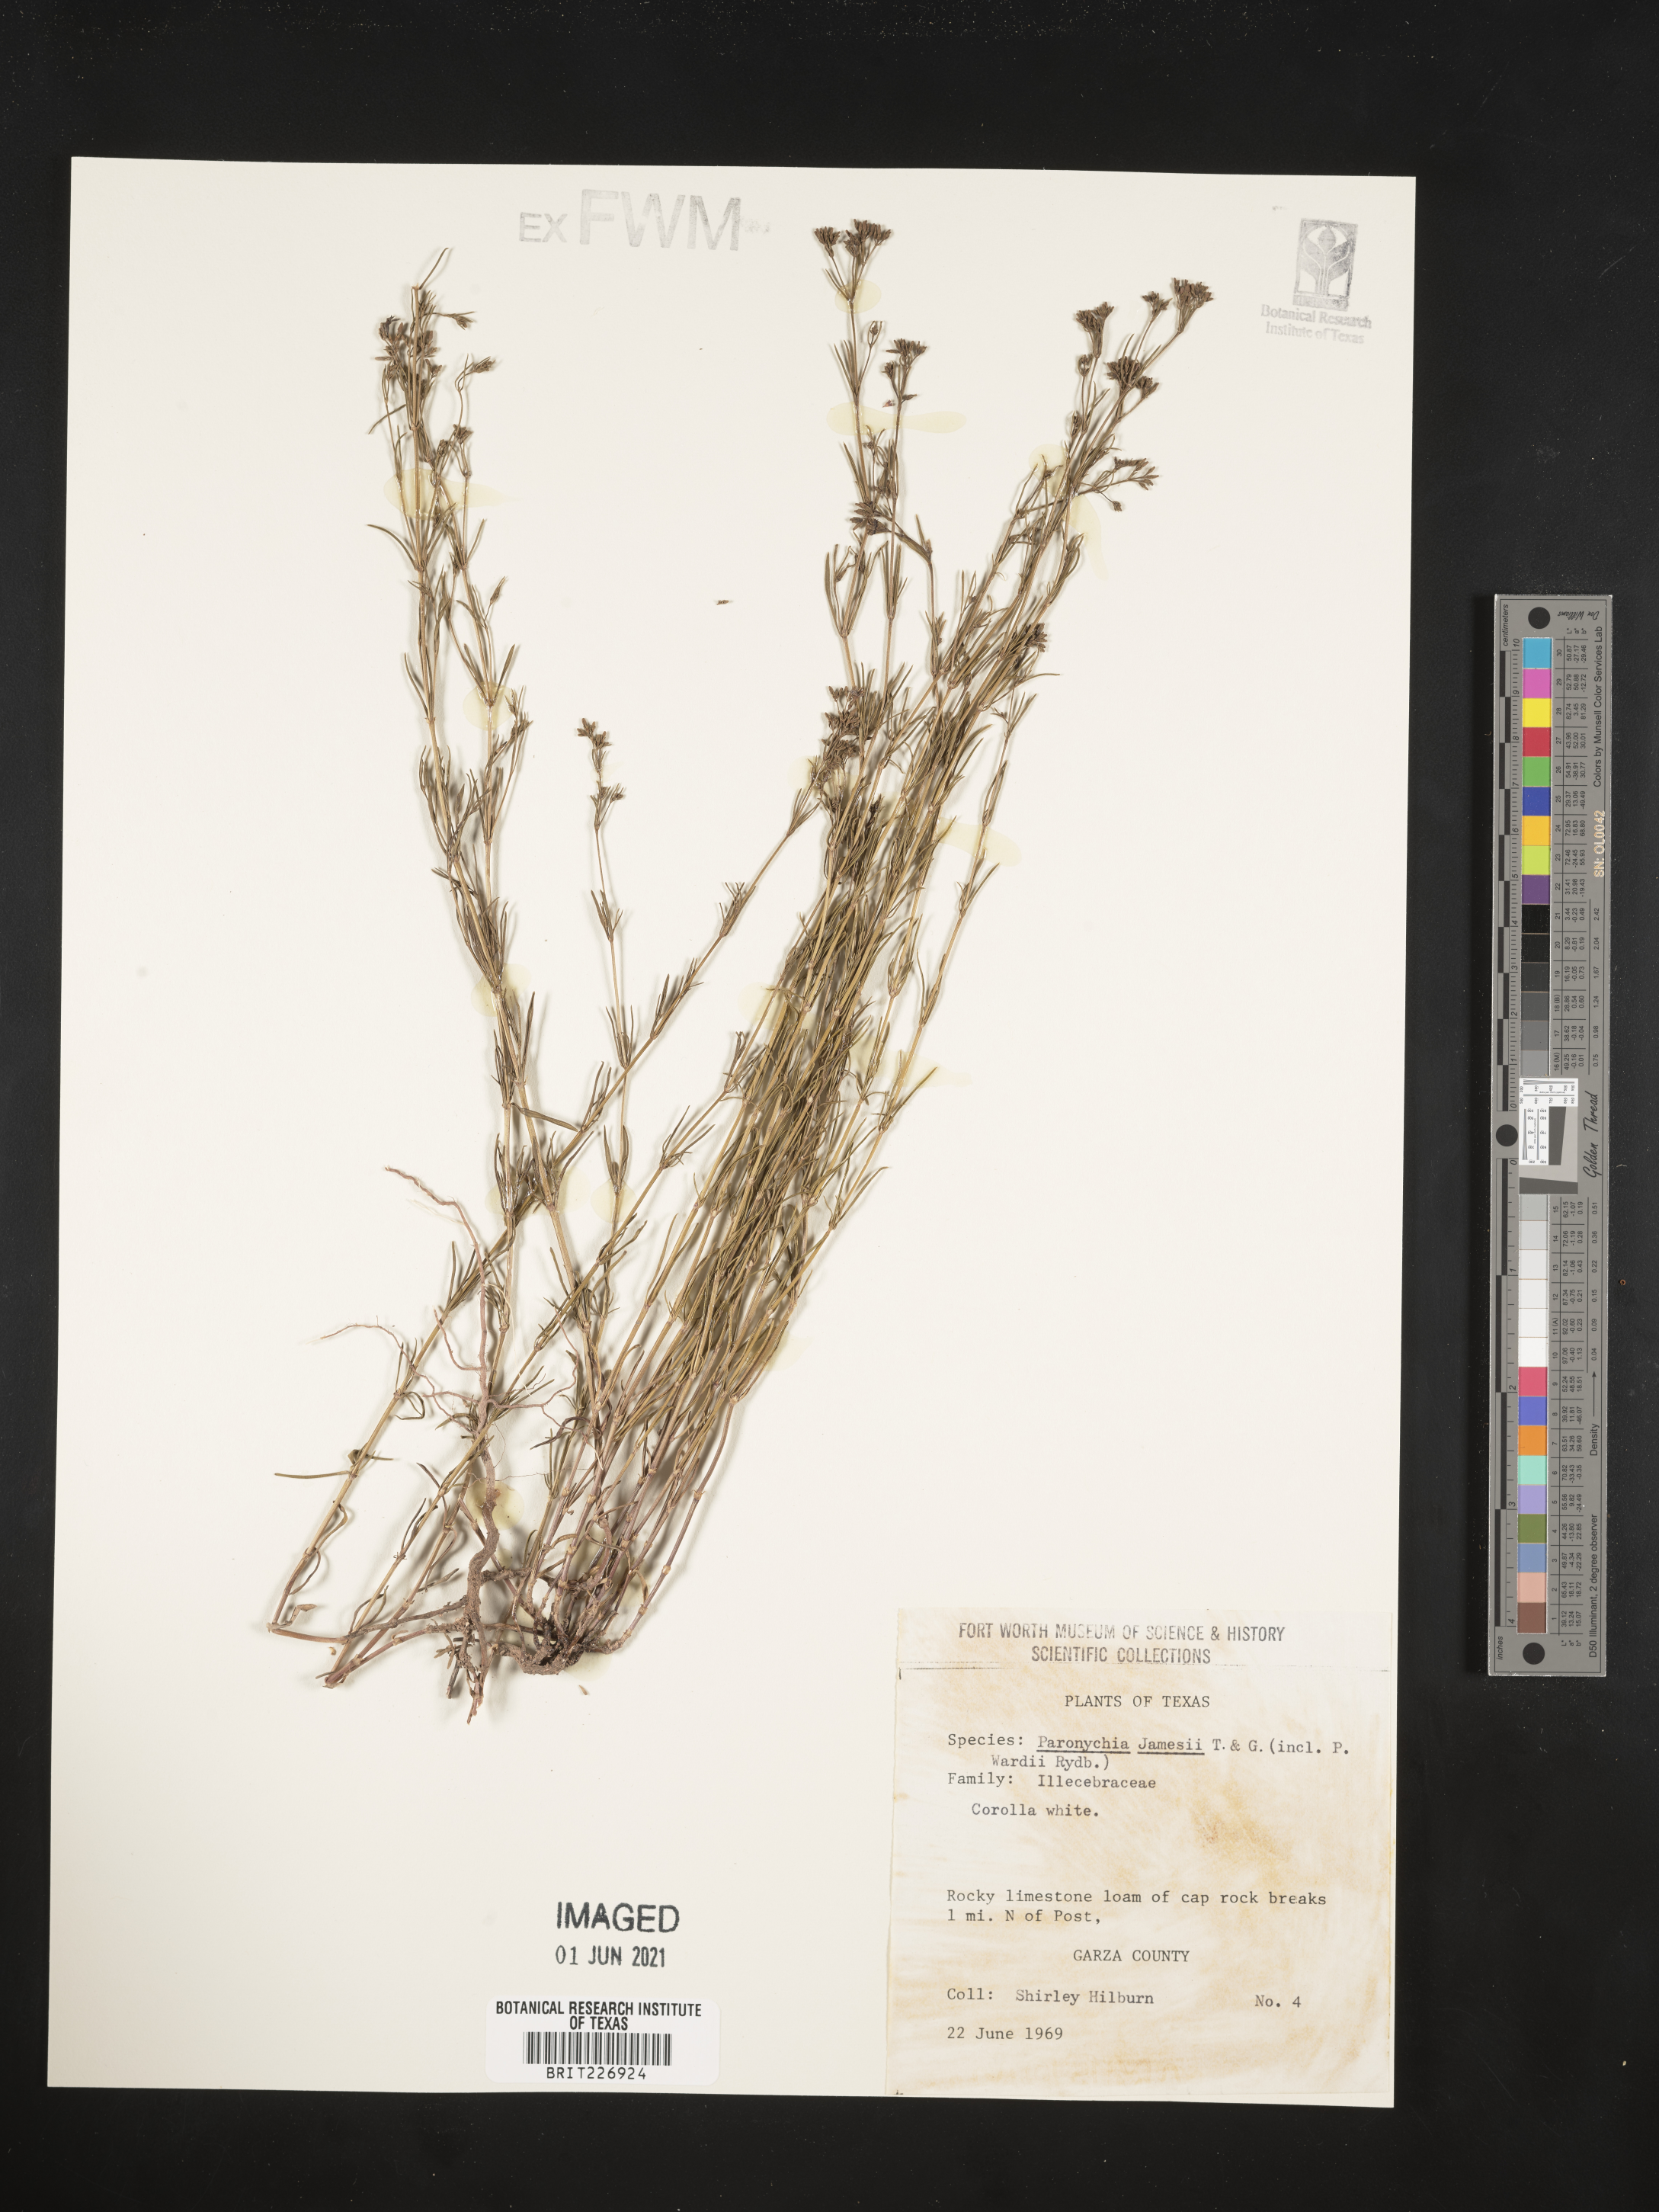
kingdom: Plantae
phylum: Tracheophyta
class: Magnoliopsida
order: Caryophyllales
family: Caryophyllaceae
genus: Paronychia
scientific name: Paronychia jamesii
